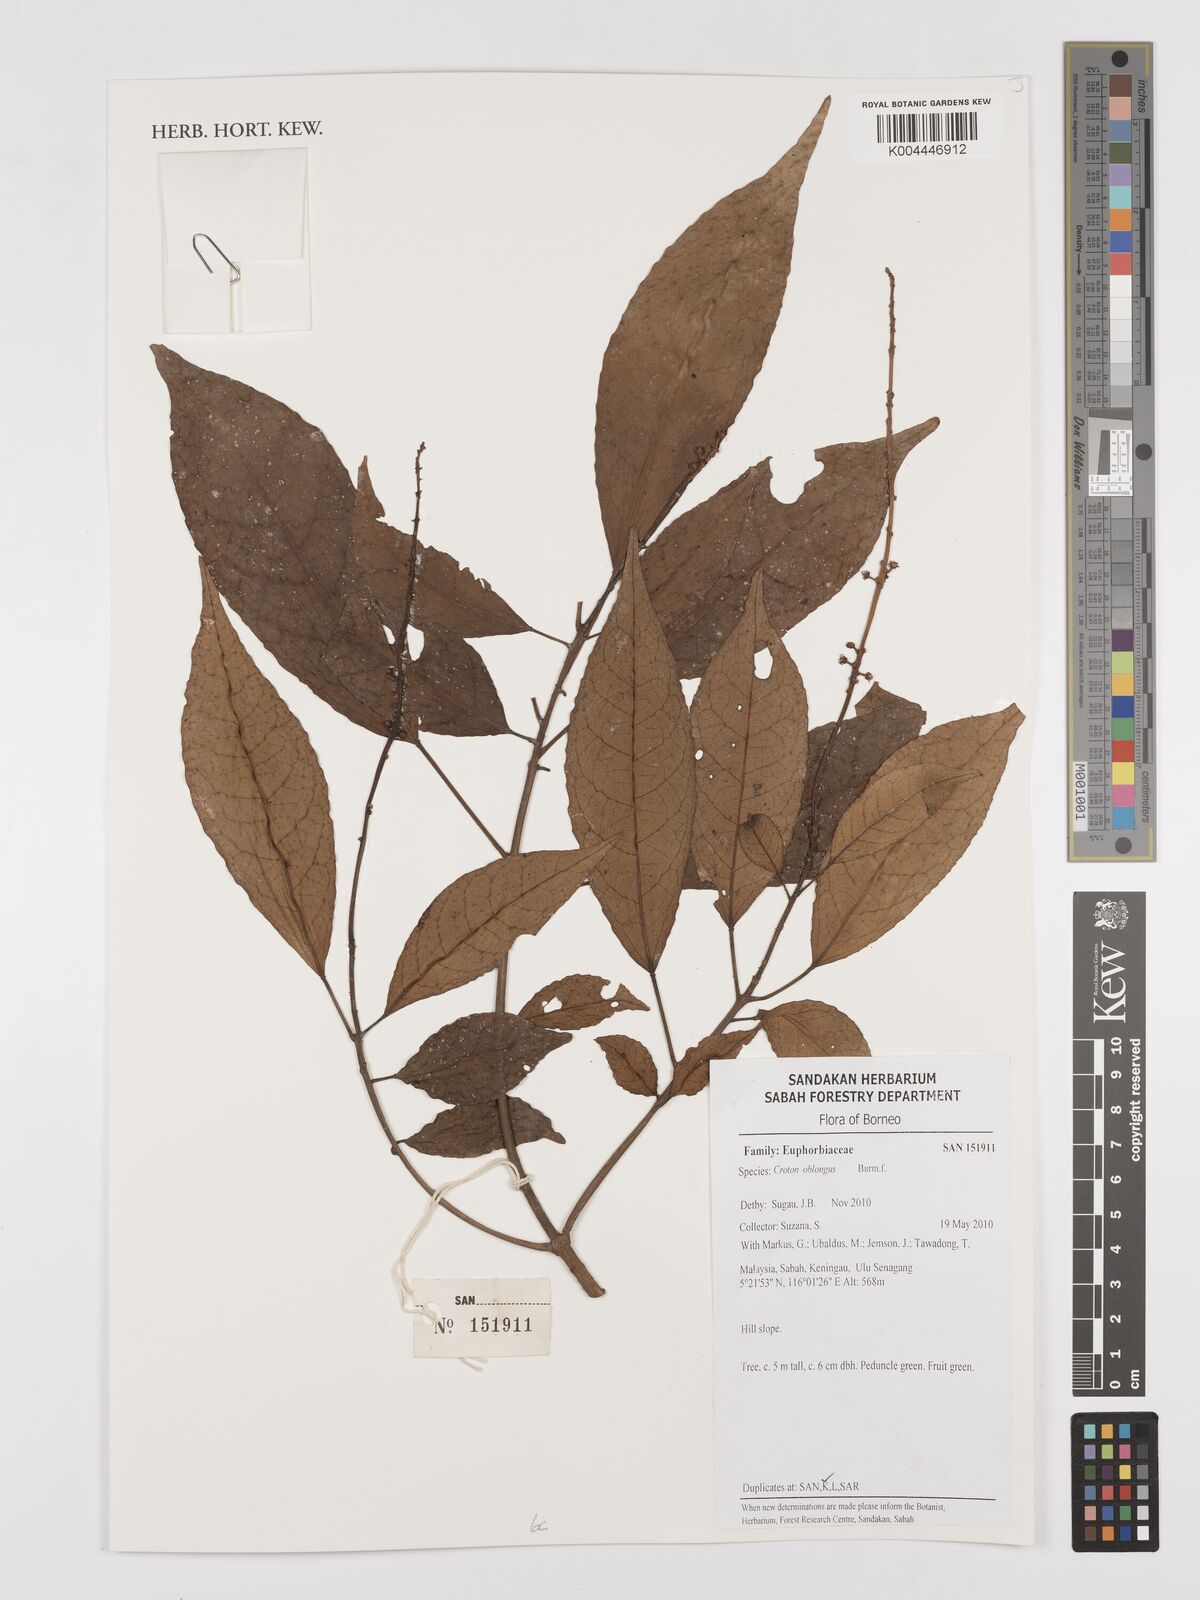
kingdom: Plantae
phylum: Tracheophyta
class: Magnoliopsida
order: Malpighiales
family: Euphorbiaceae
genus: Croton
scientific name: Croton oblongus
